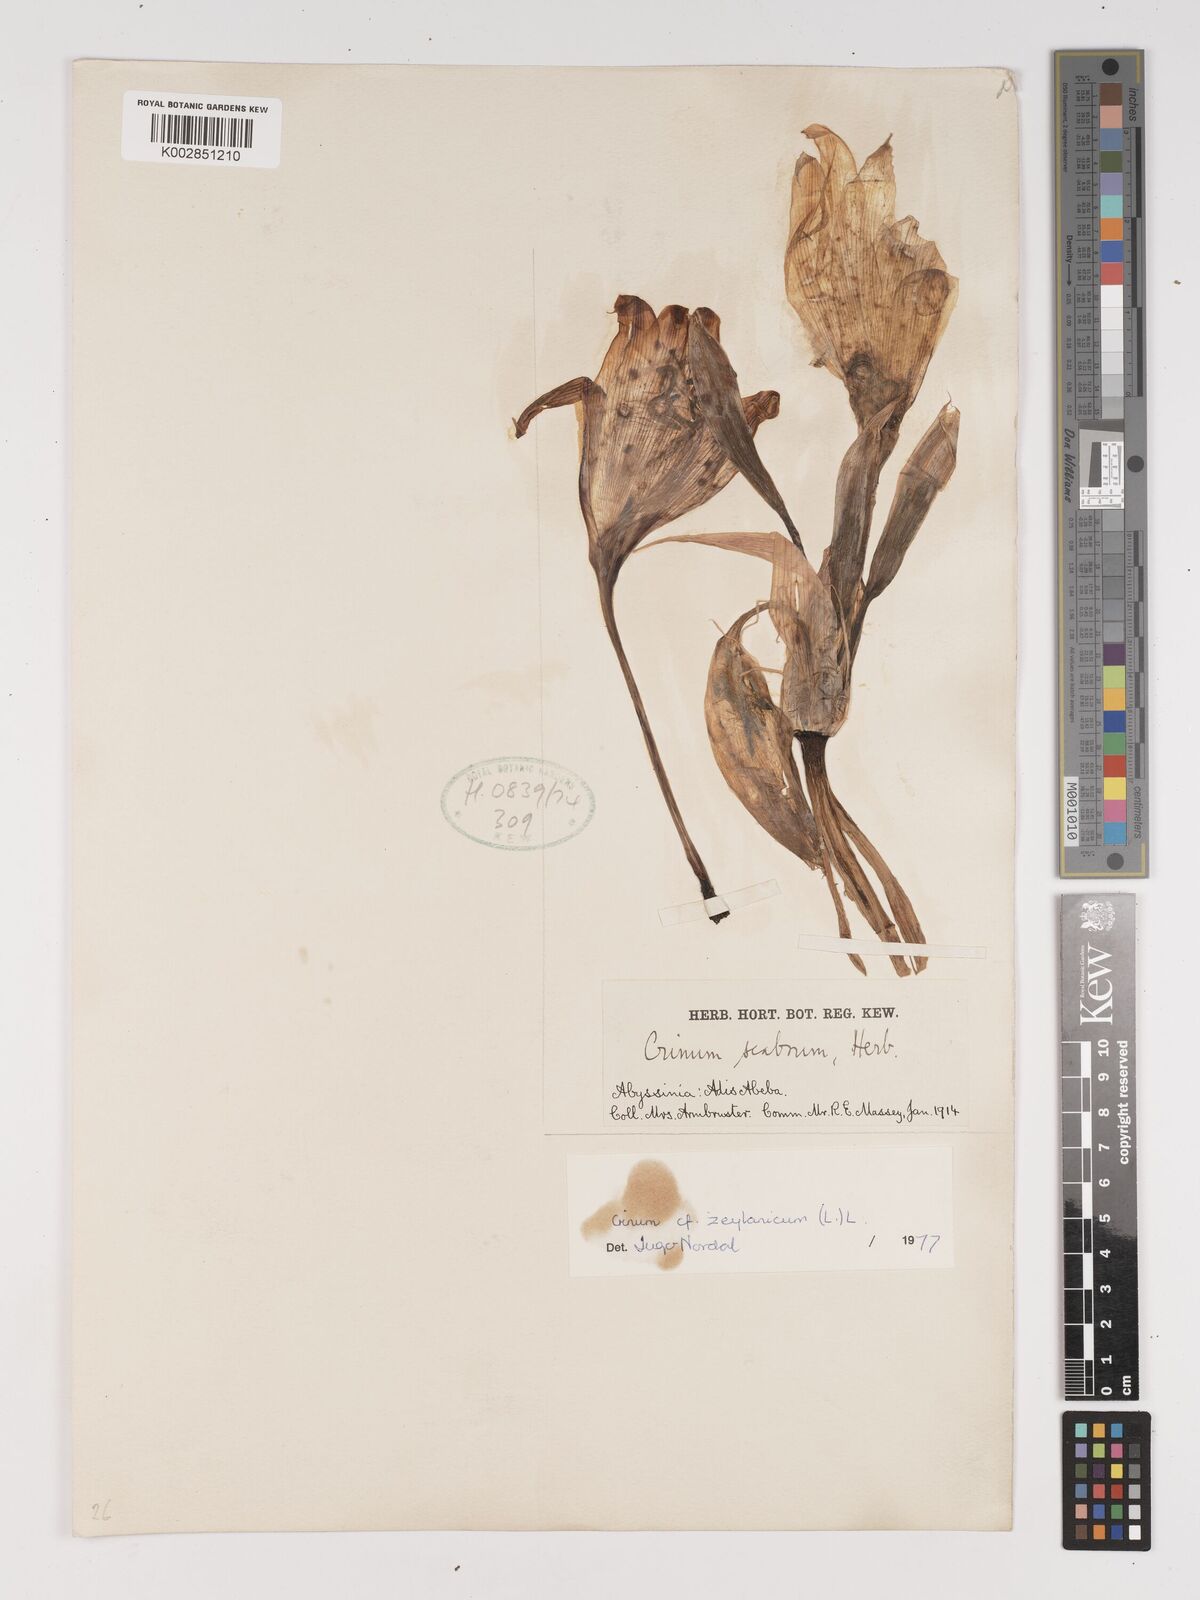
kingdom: Plantae
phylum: Tracheophyta
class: Liliopsida
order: Asparagales
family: Amaryllidaceae
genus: Crinum
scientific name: Crinum zeylanicum
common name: Ceylon swamplily
